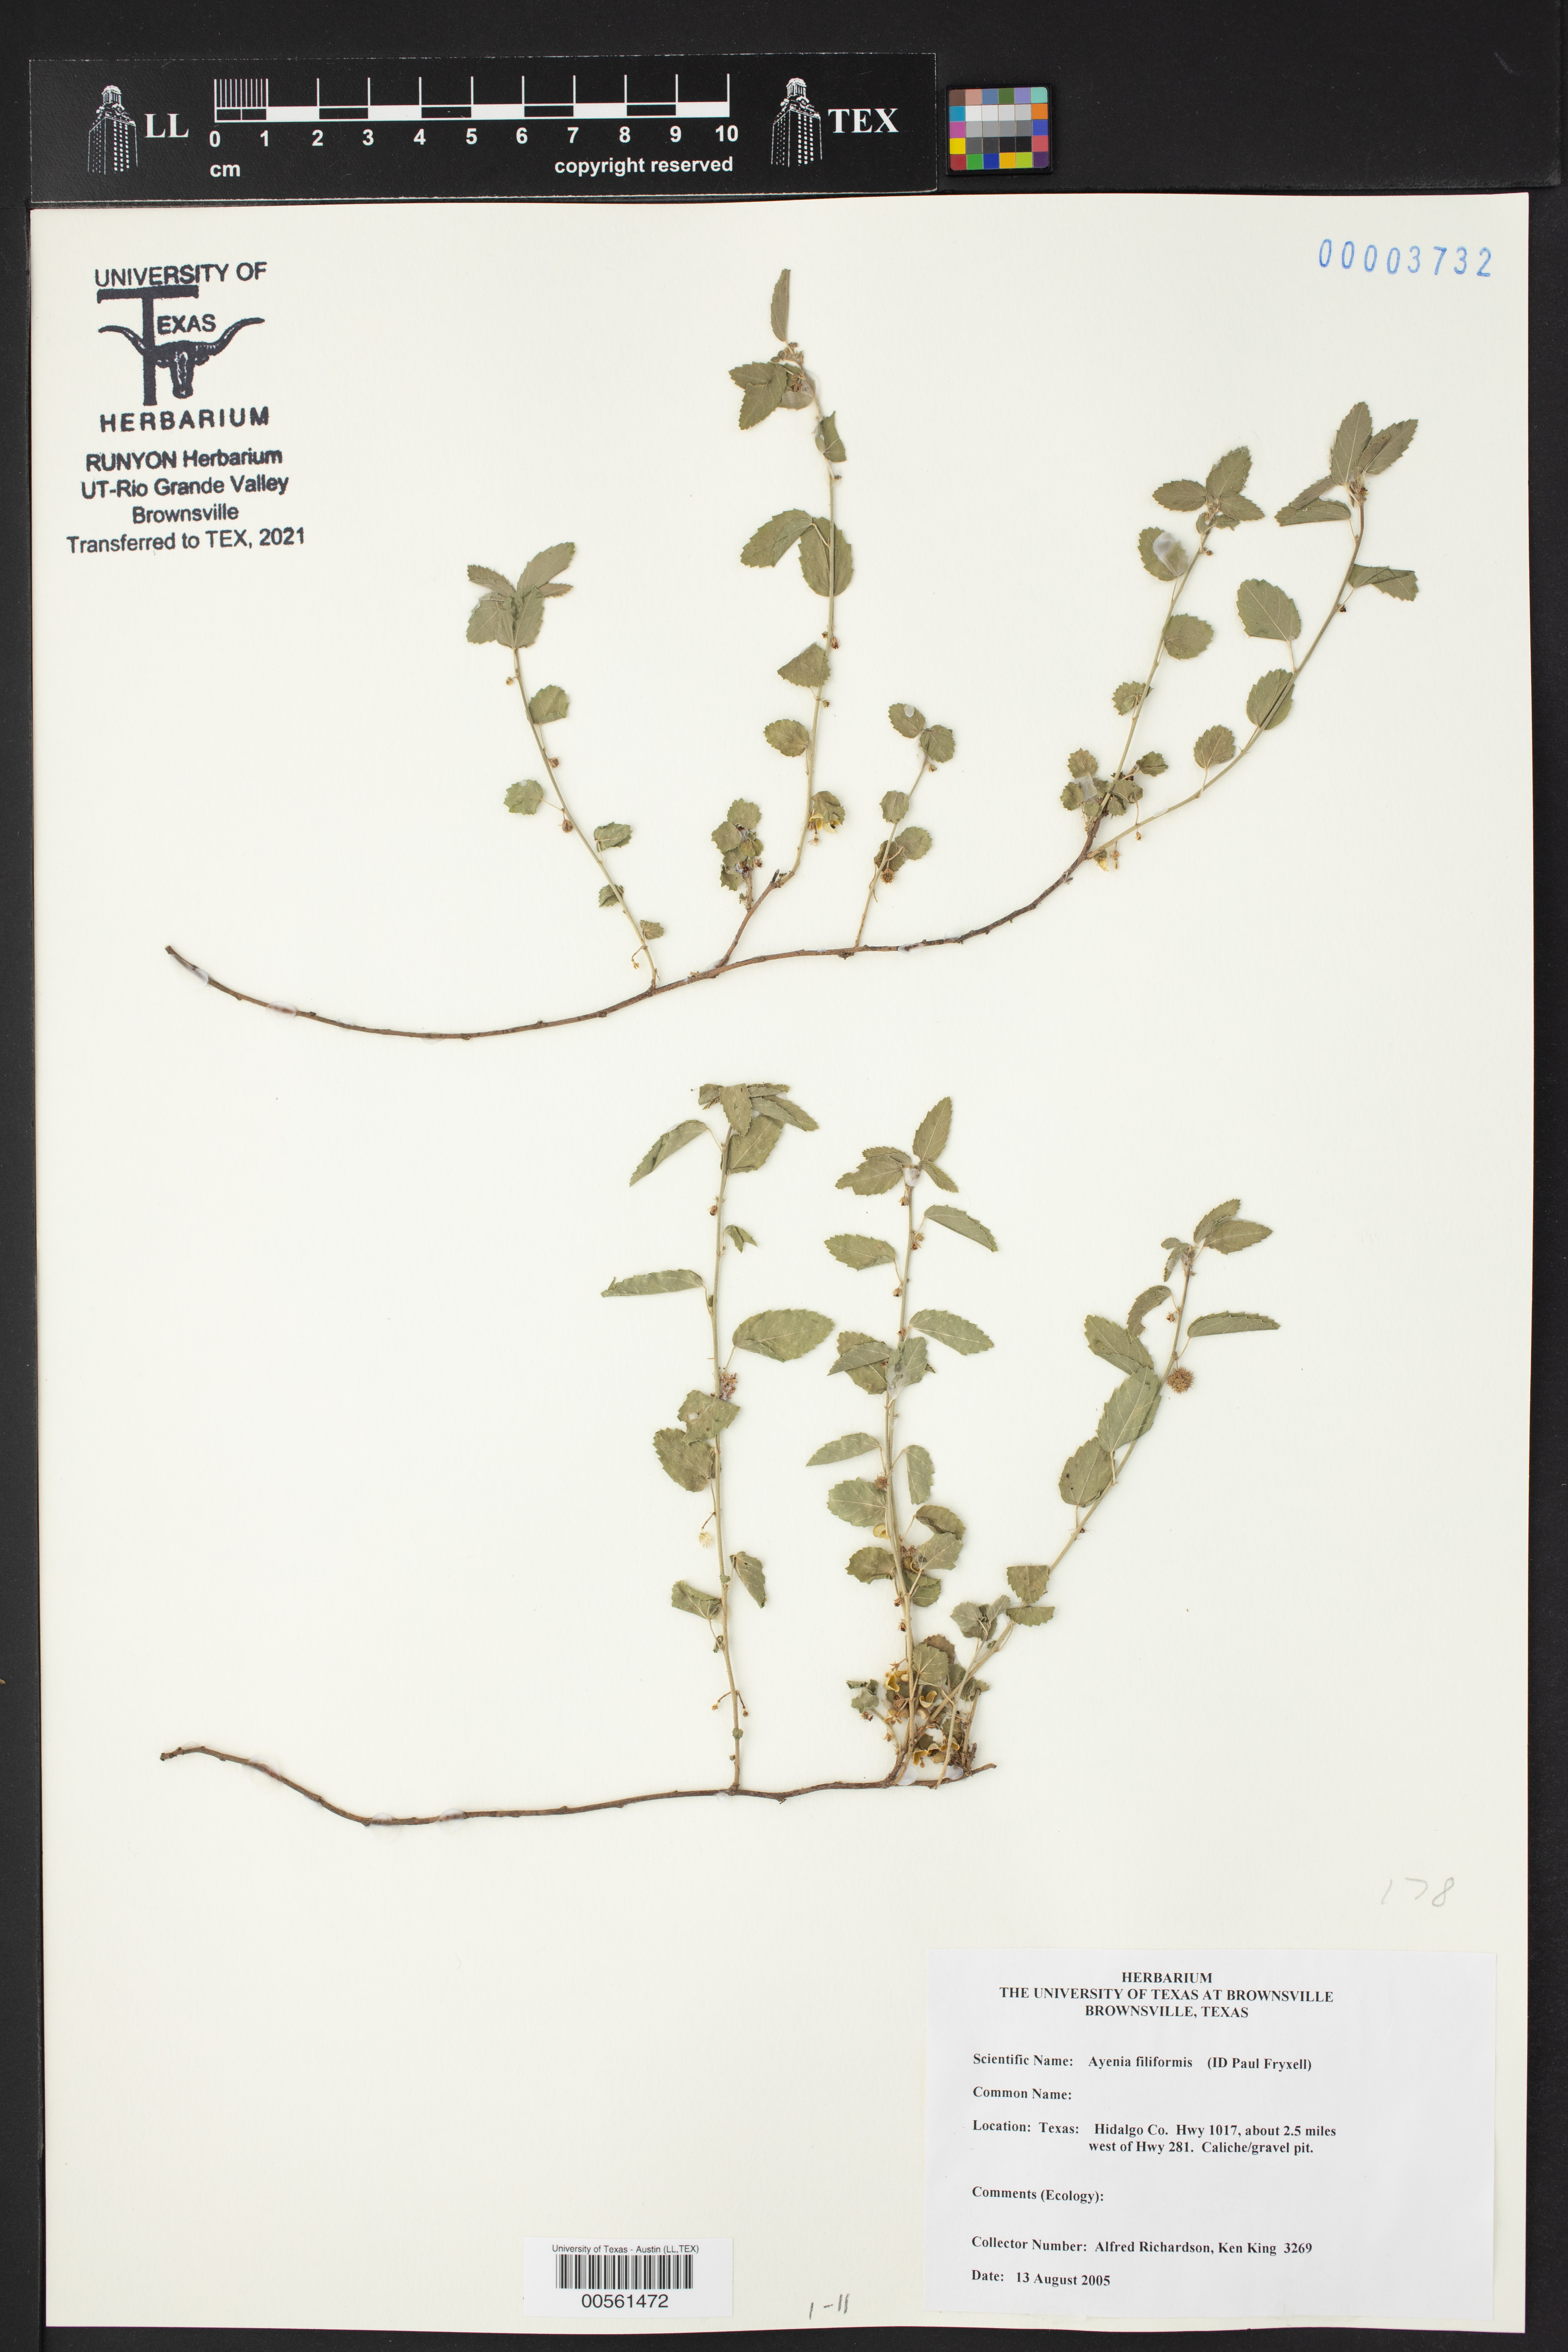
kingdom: Plantae
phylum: Tracheophyta
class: Magnoliopsida
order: Malvales
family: Malvaceae
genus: Ayenia
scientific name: Ayenia filiformis
